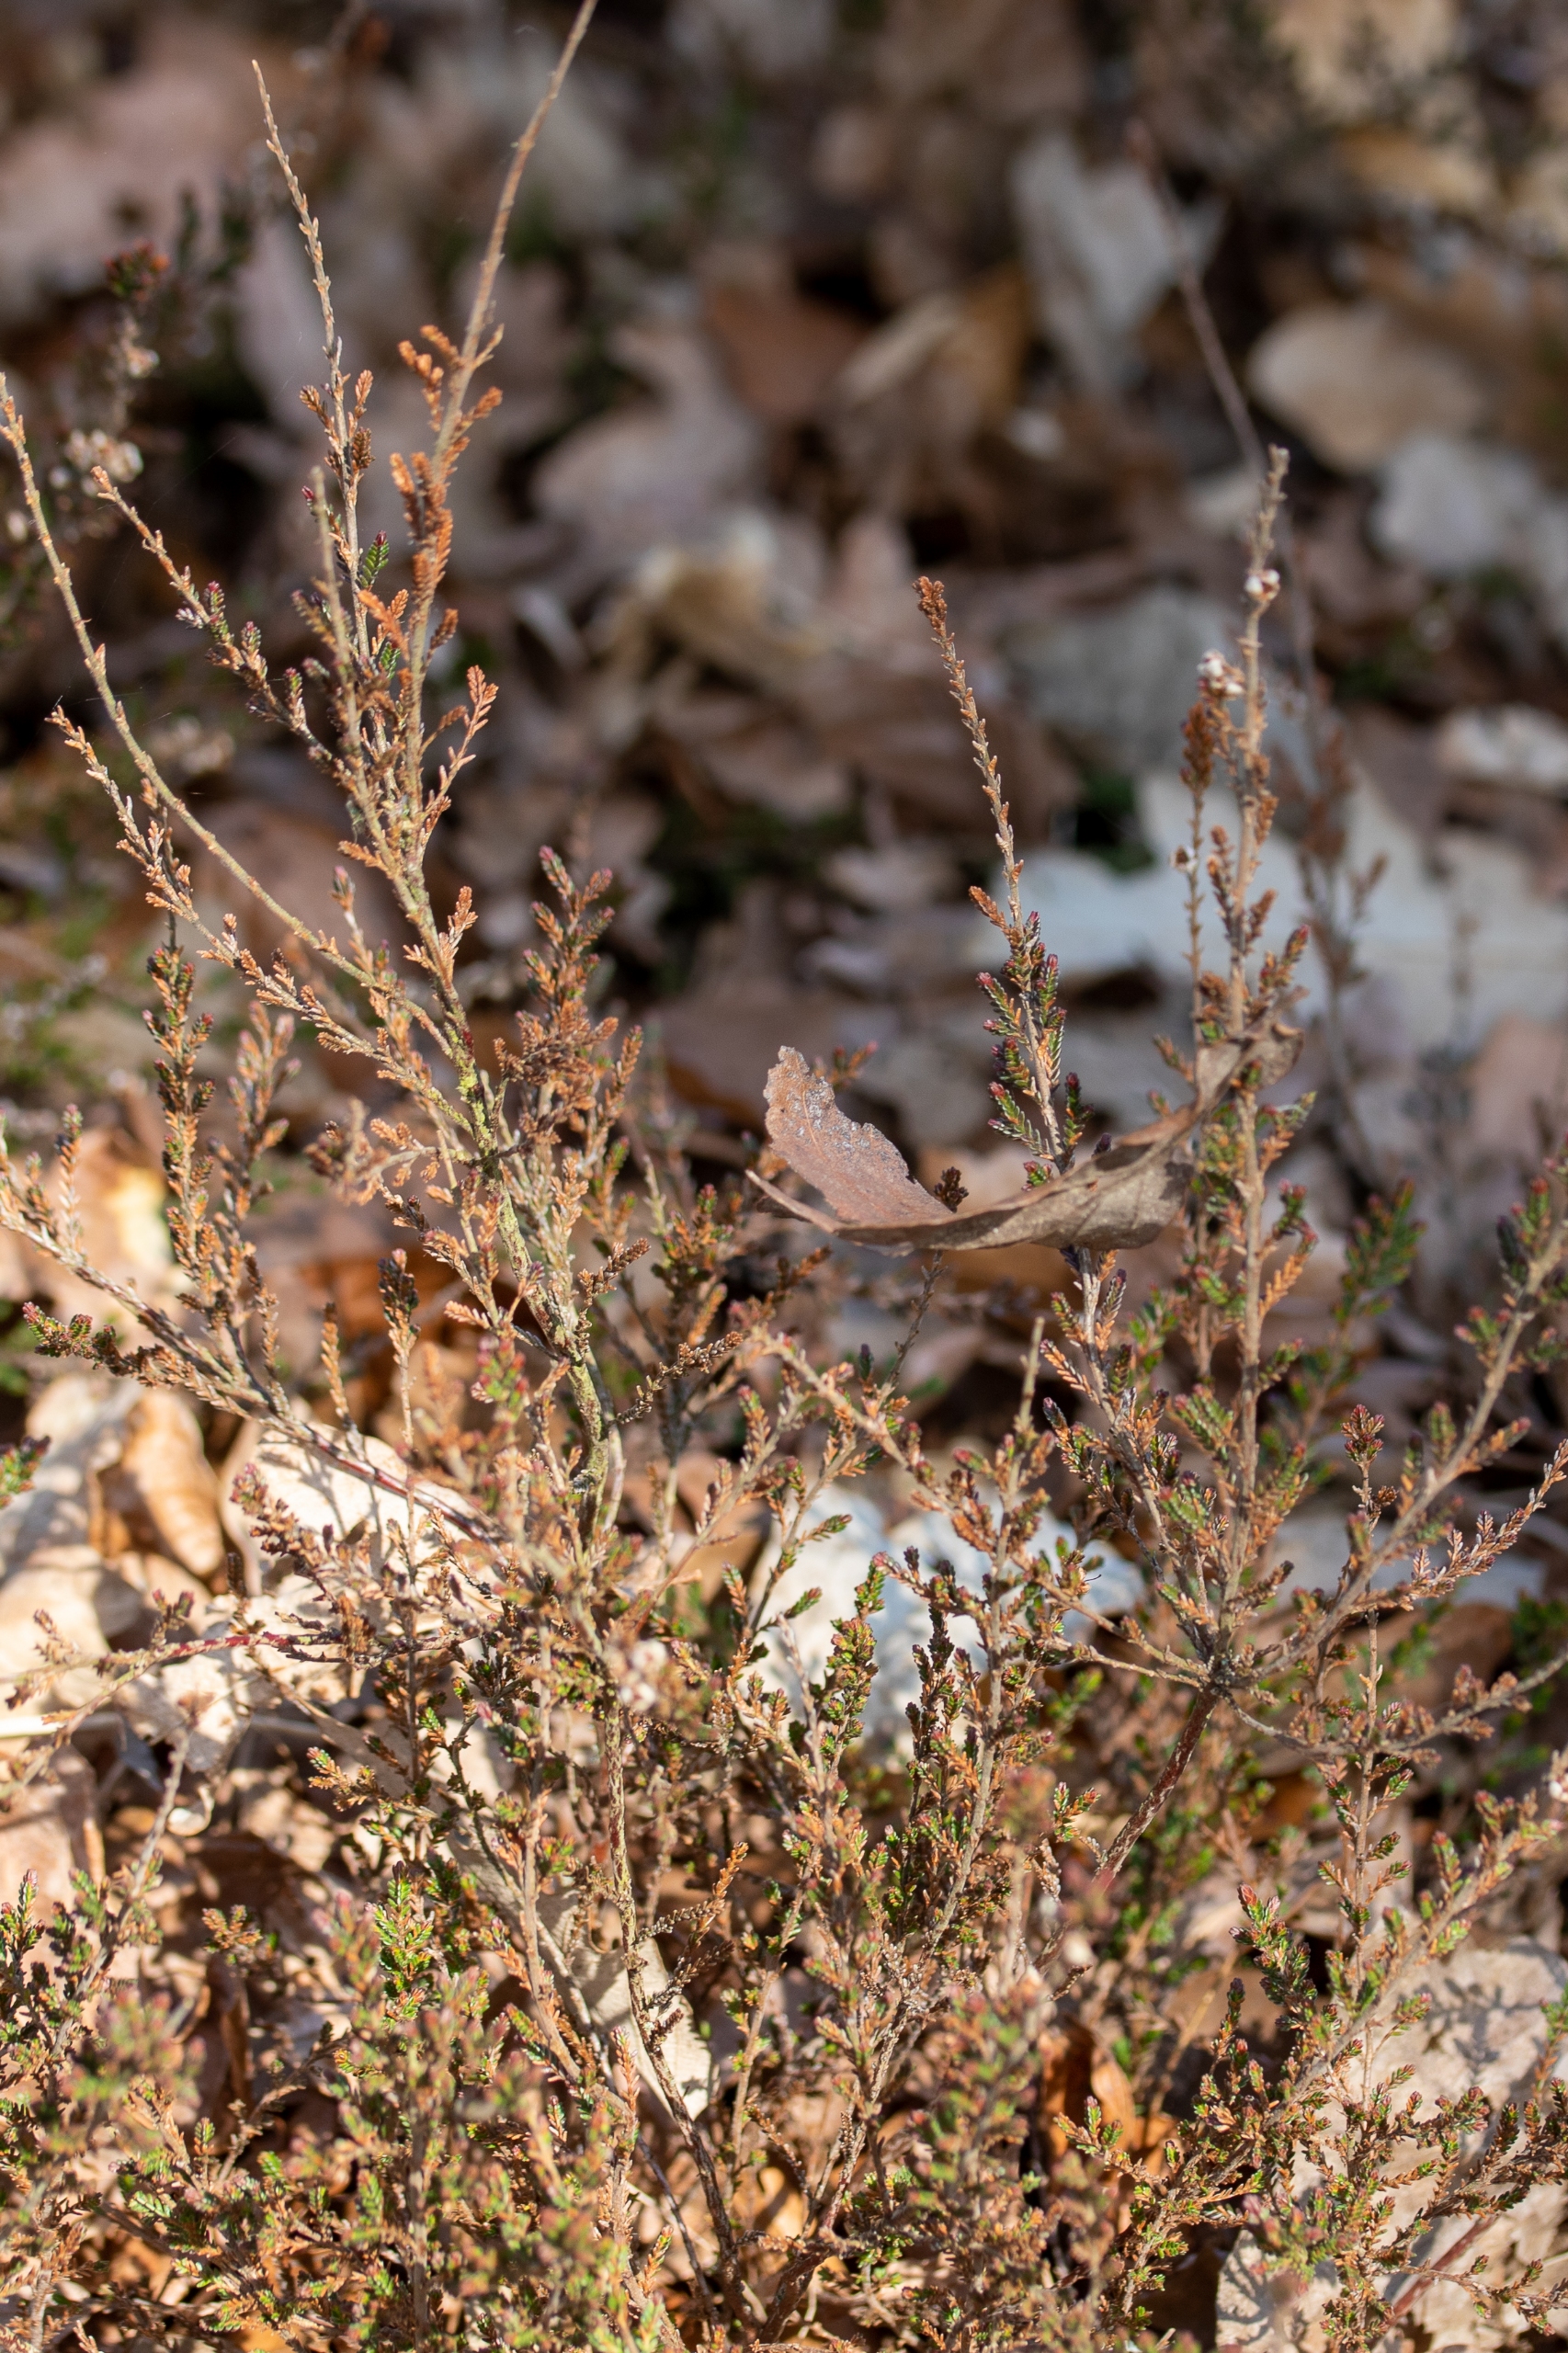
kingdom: Plantae
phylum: Tracheophyta
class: Magnoliopsida
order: Ericales
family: Ericaceae
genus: Calluna
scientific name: Calluna vulgaris
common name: Hedelyng
